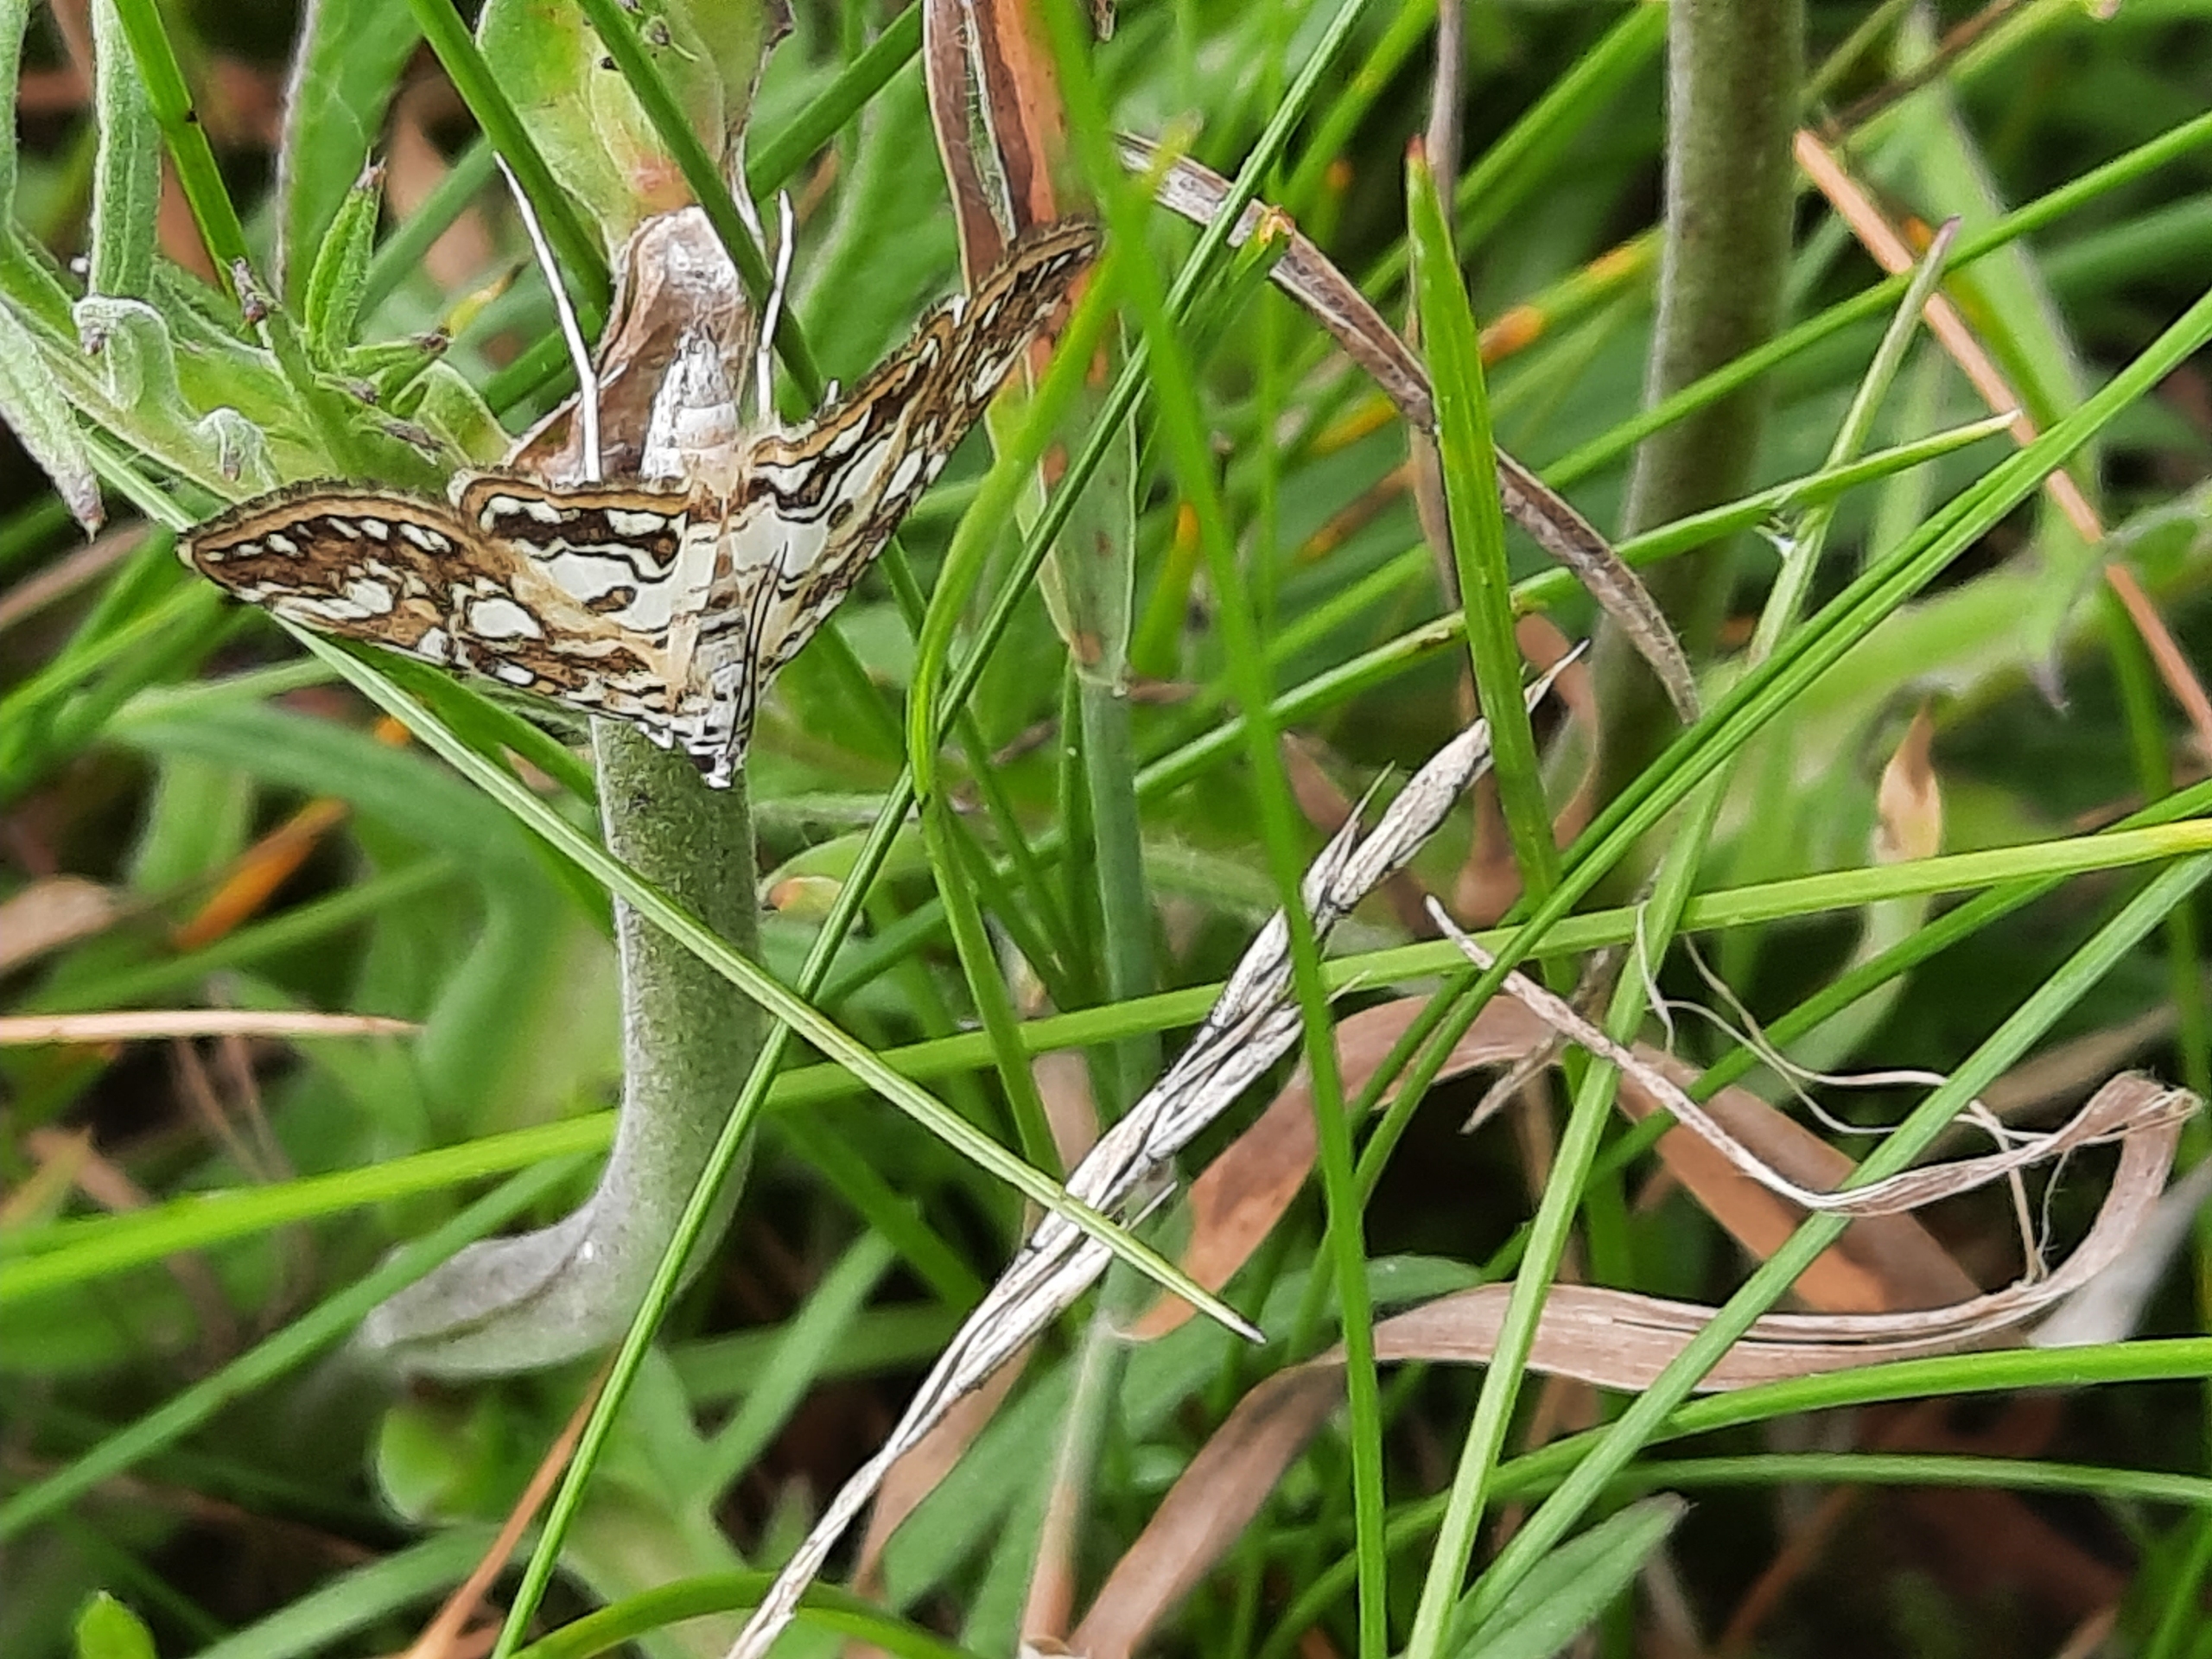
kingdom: Animalia
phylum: Arthropoda
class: Insecta
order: Lepidoptera
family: Crambidae
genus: Elophila
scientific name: Elophila nymphaeata
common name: Åkandehalvmøl
